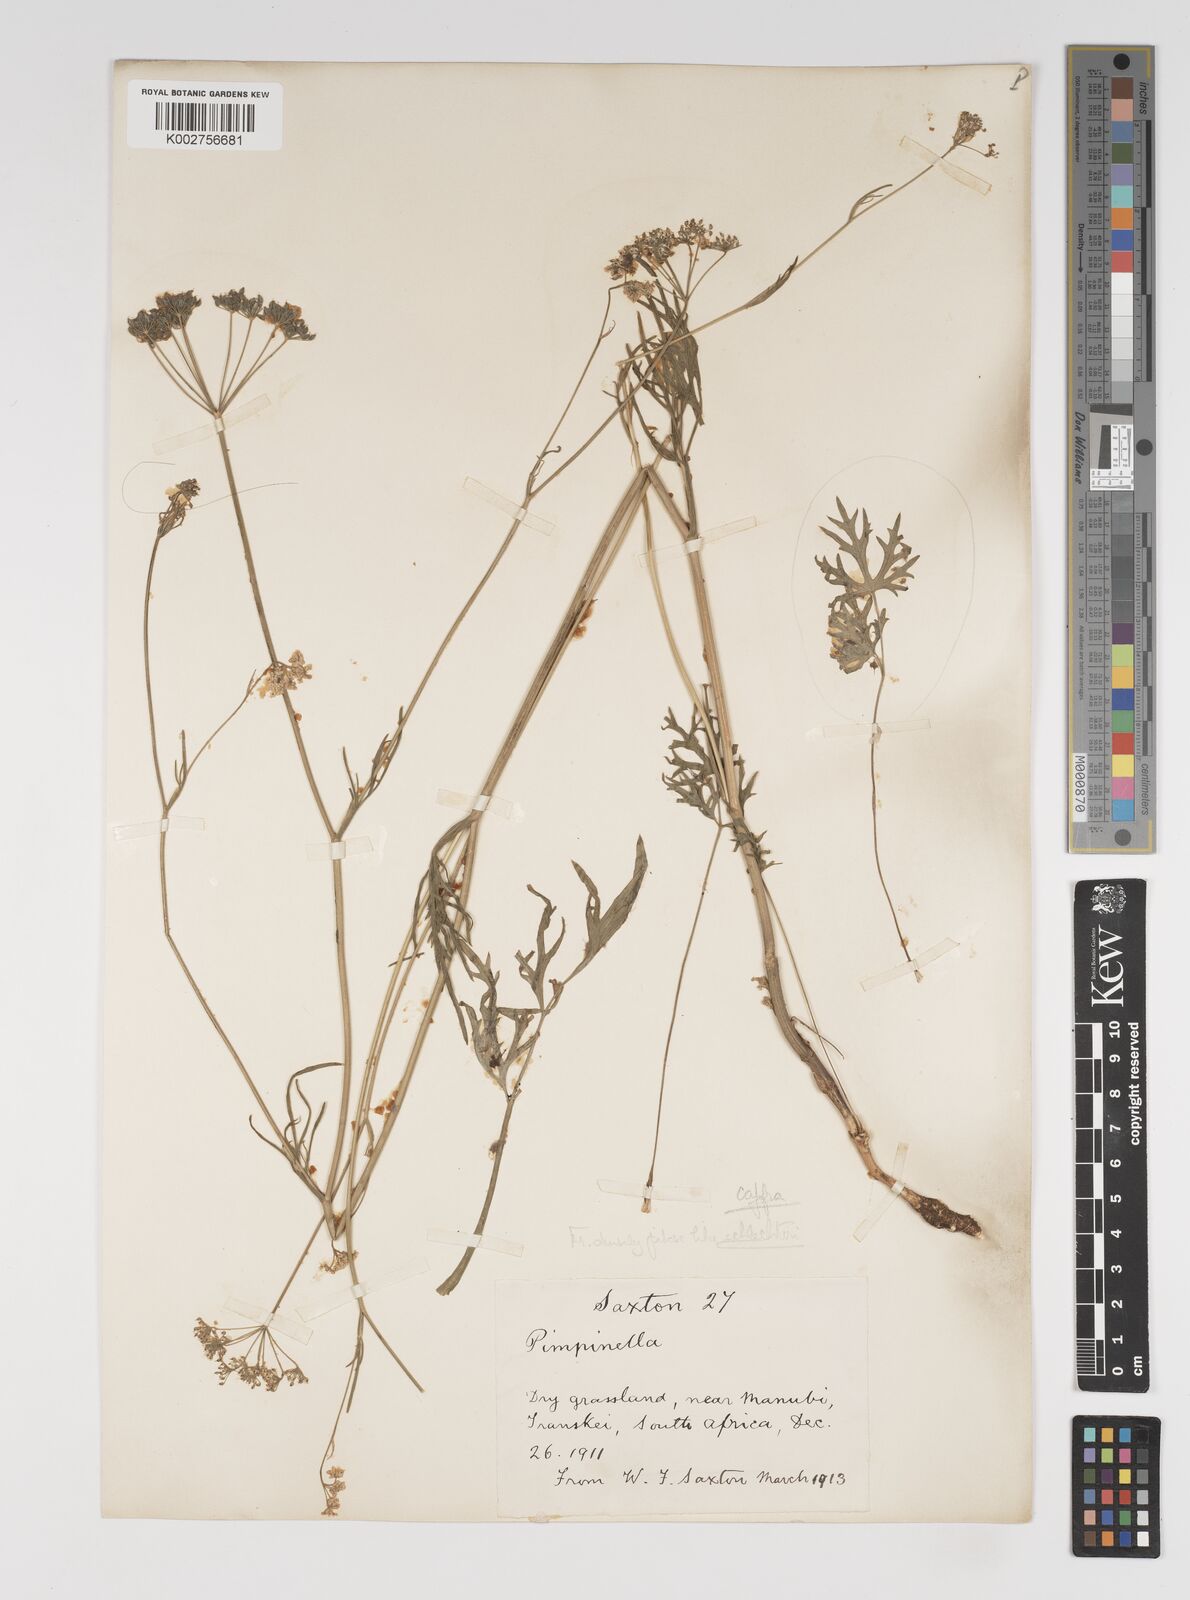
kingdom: Plantae
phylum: Tracheophyta
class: Magnoliopsida
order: Apiales
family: Apiaceae
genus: Pimpinella
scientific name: Pimpinella
